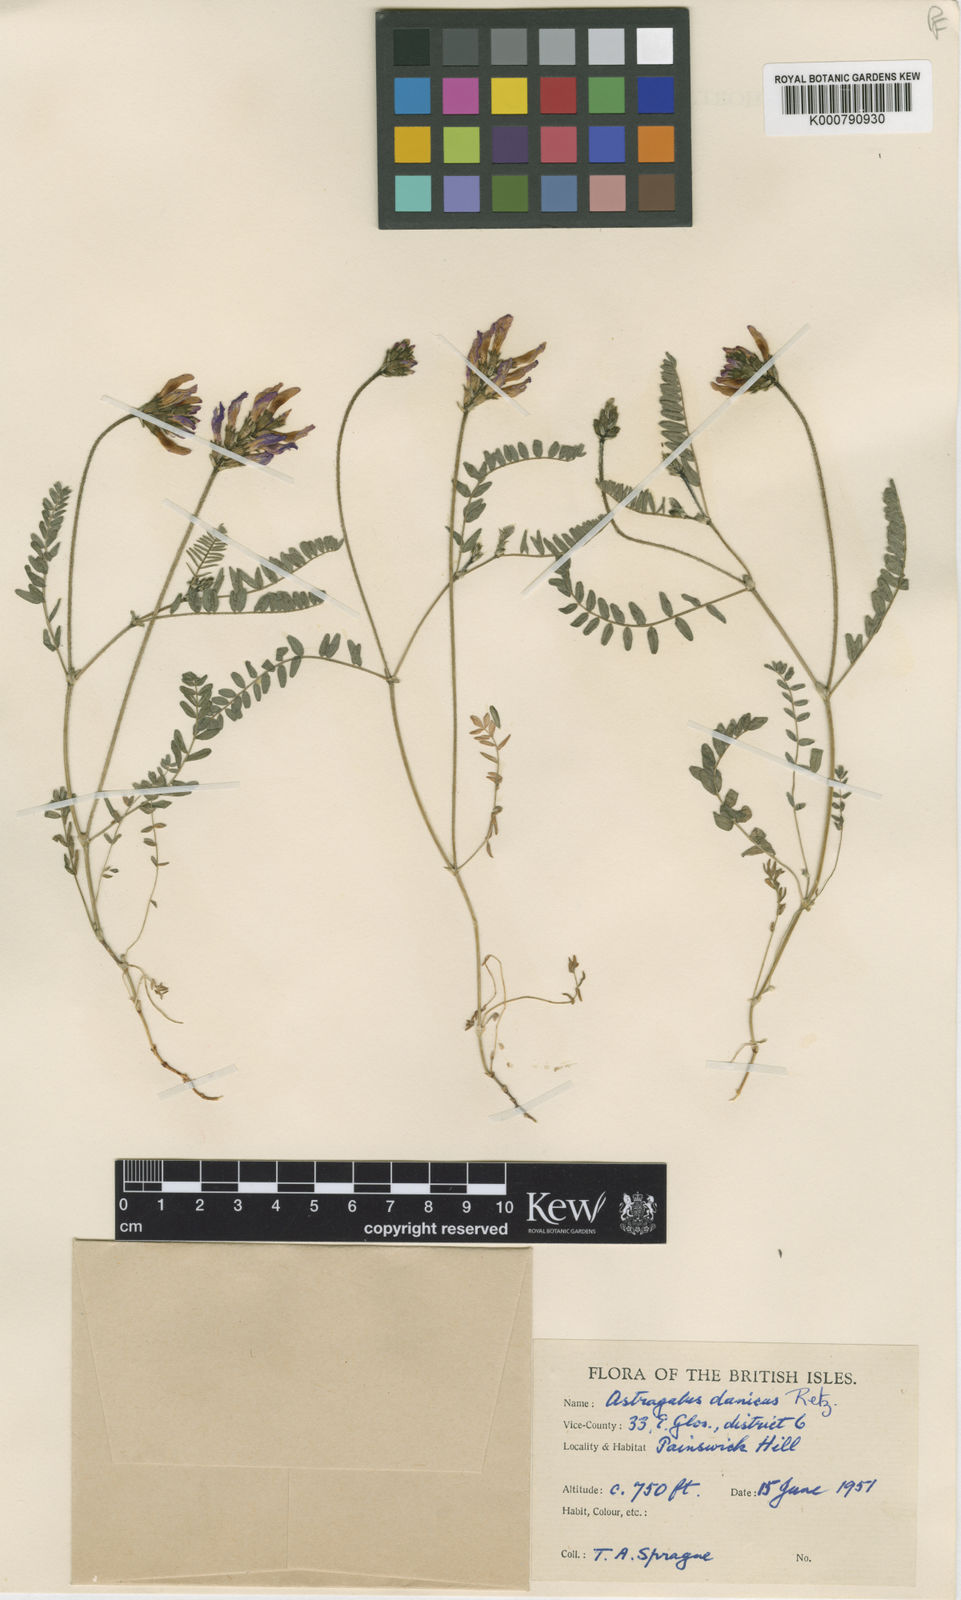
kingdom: Plantae
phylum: Tracheophyta
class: Magnoliopsida
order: Fabales
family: Fabaceae
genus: Astragalus
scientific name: Astragalus danicus
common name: Purple milk-vetch
